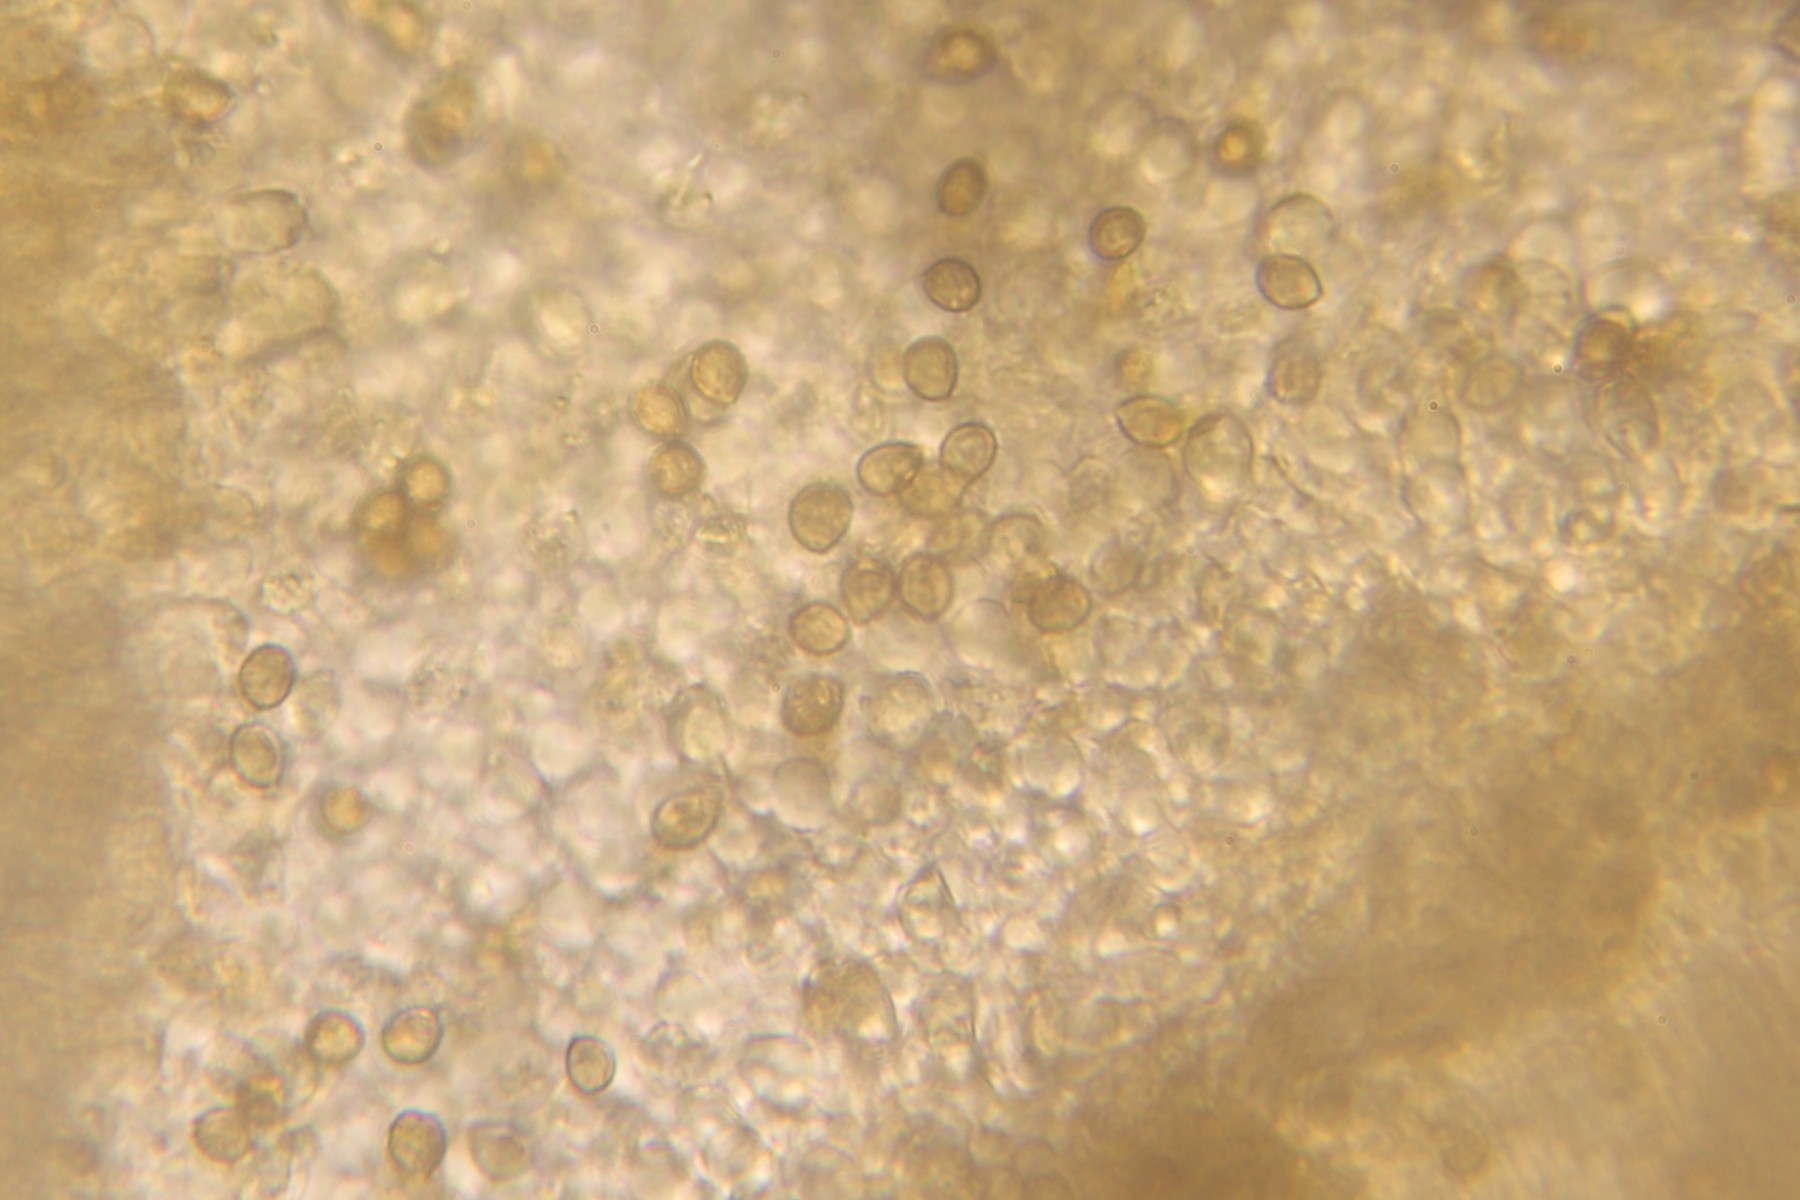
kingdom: Fungi
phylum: Basidiomycota
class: Agaricomycetes
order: Agaricales
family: Cortinariaceae
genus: Cortinarius
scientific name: Cortinarius
